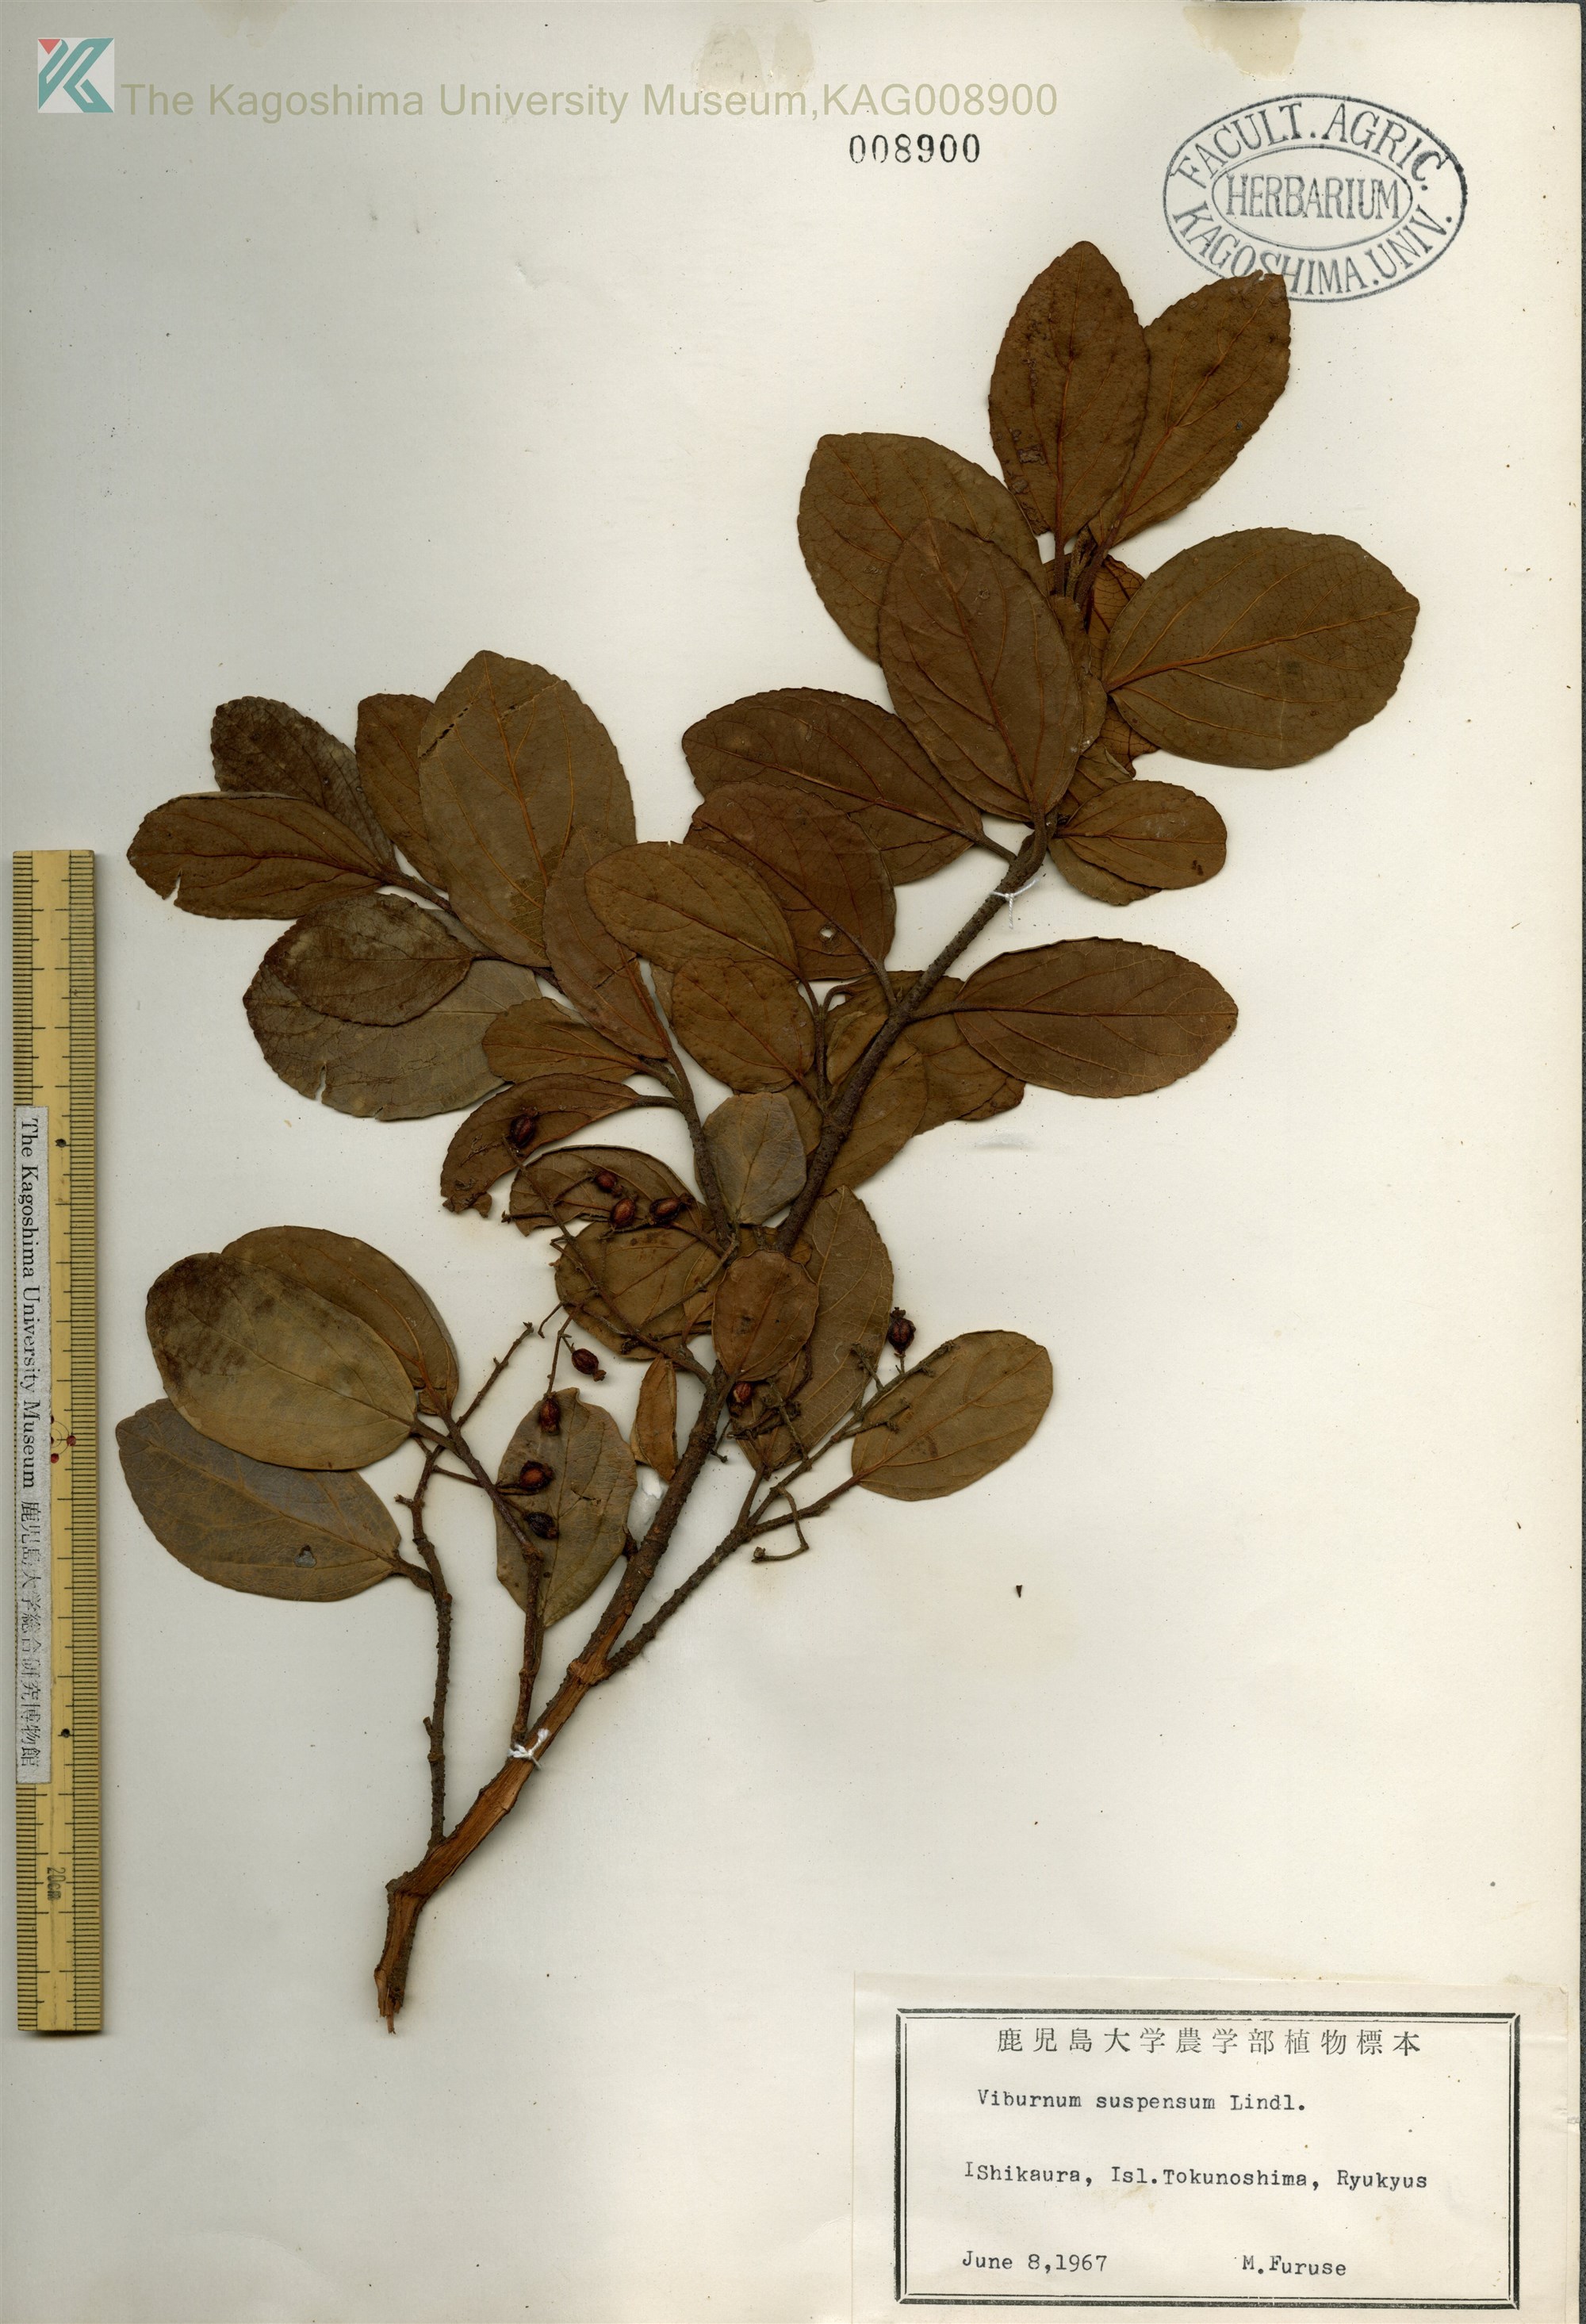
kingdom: Plantae
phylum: Tracheophyta
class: Magnoliopsida
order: Dipsacales
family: Viburnaceae
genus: Viburnum
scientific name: Viburnum suspensum
